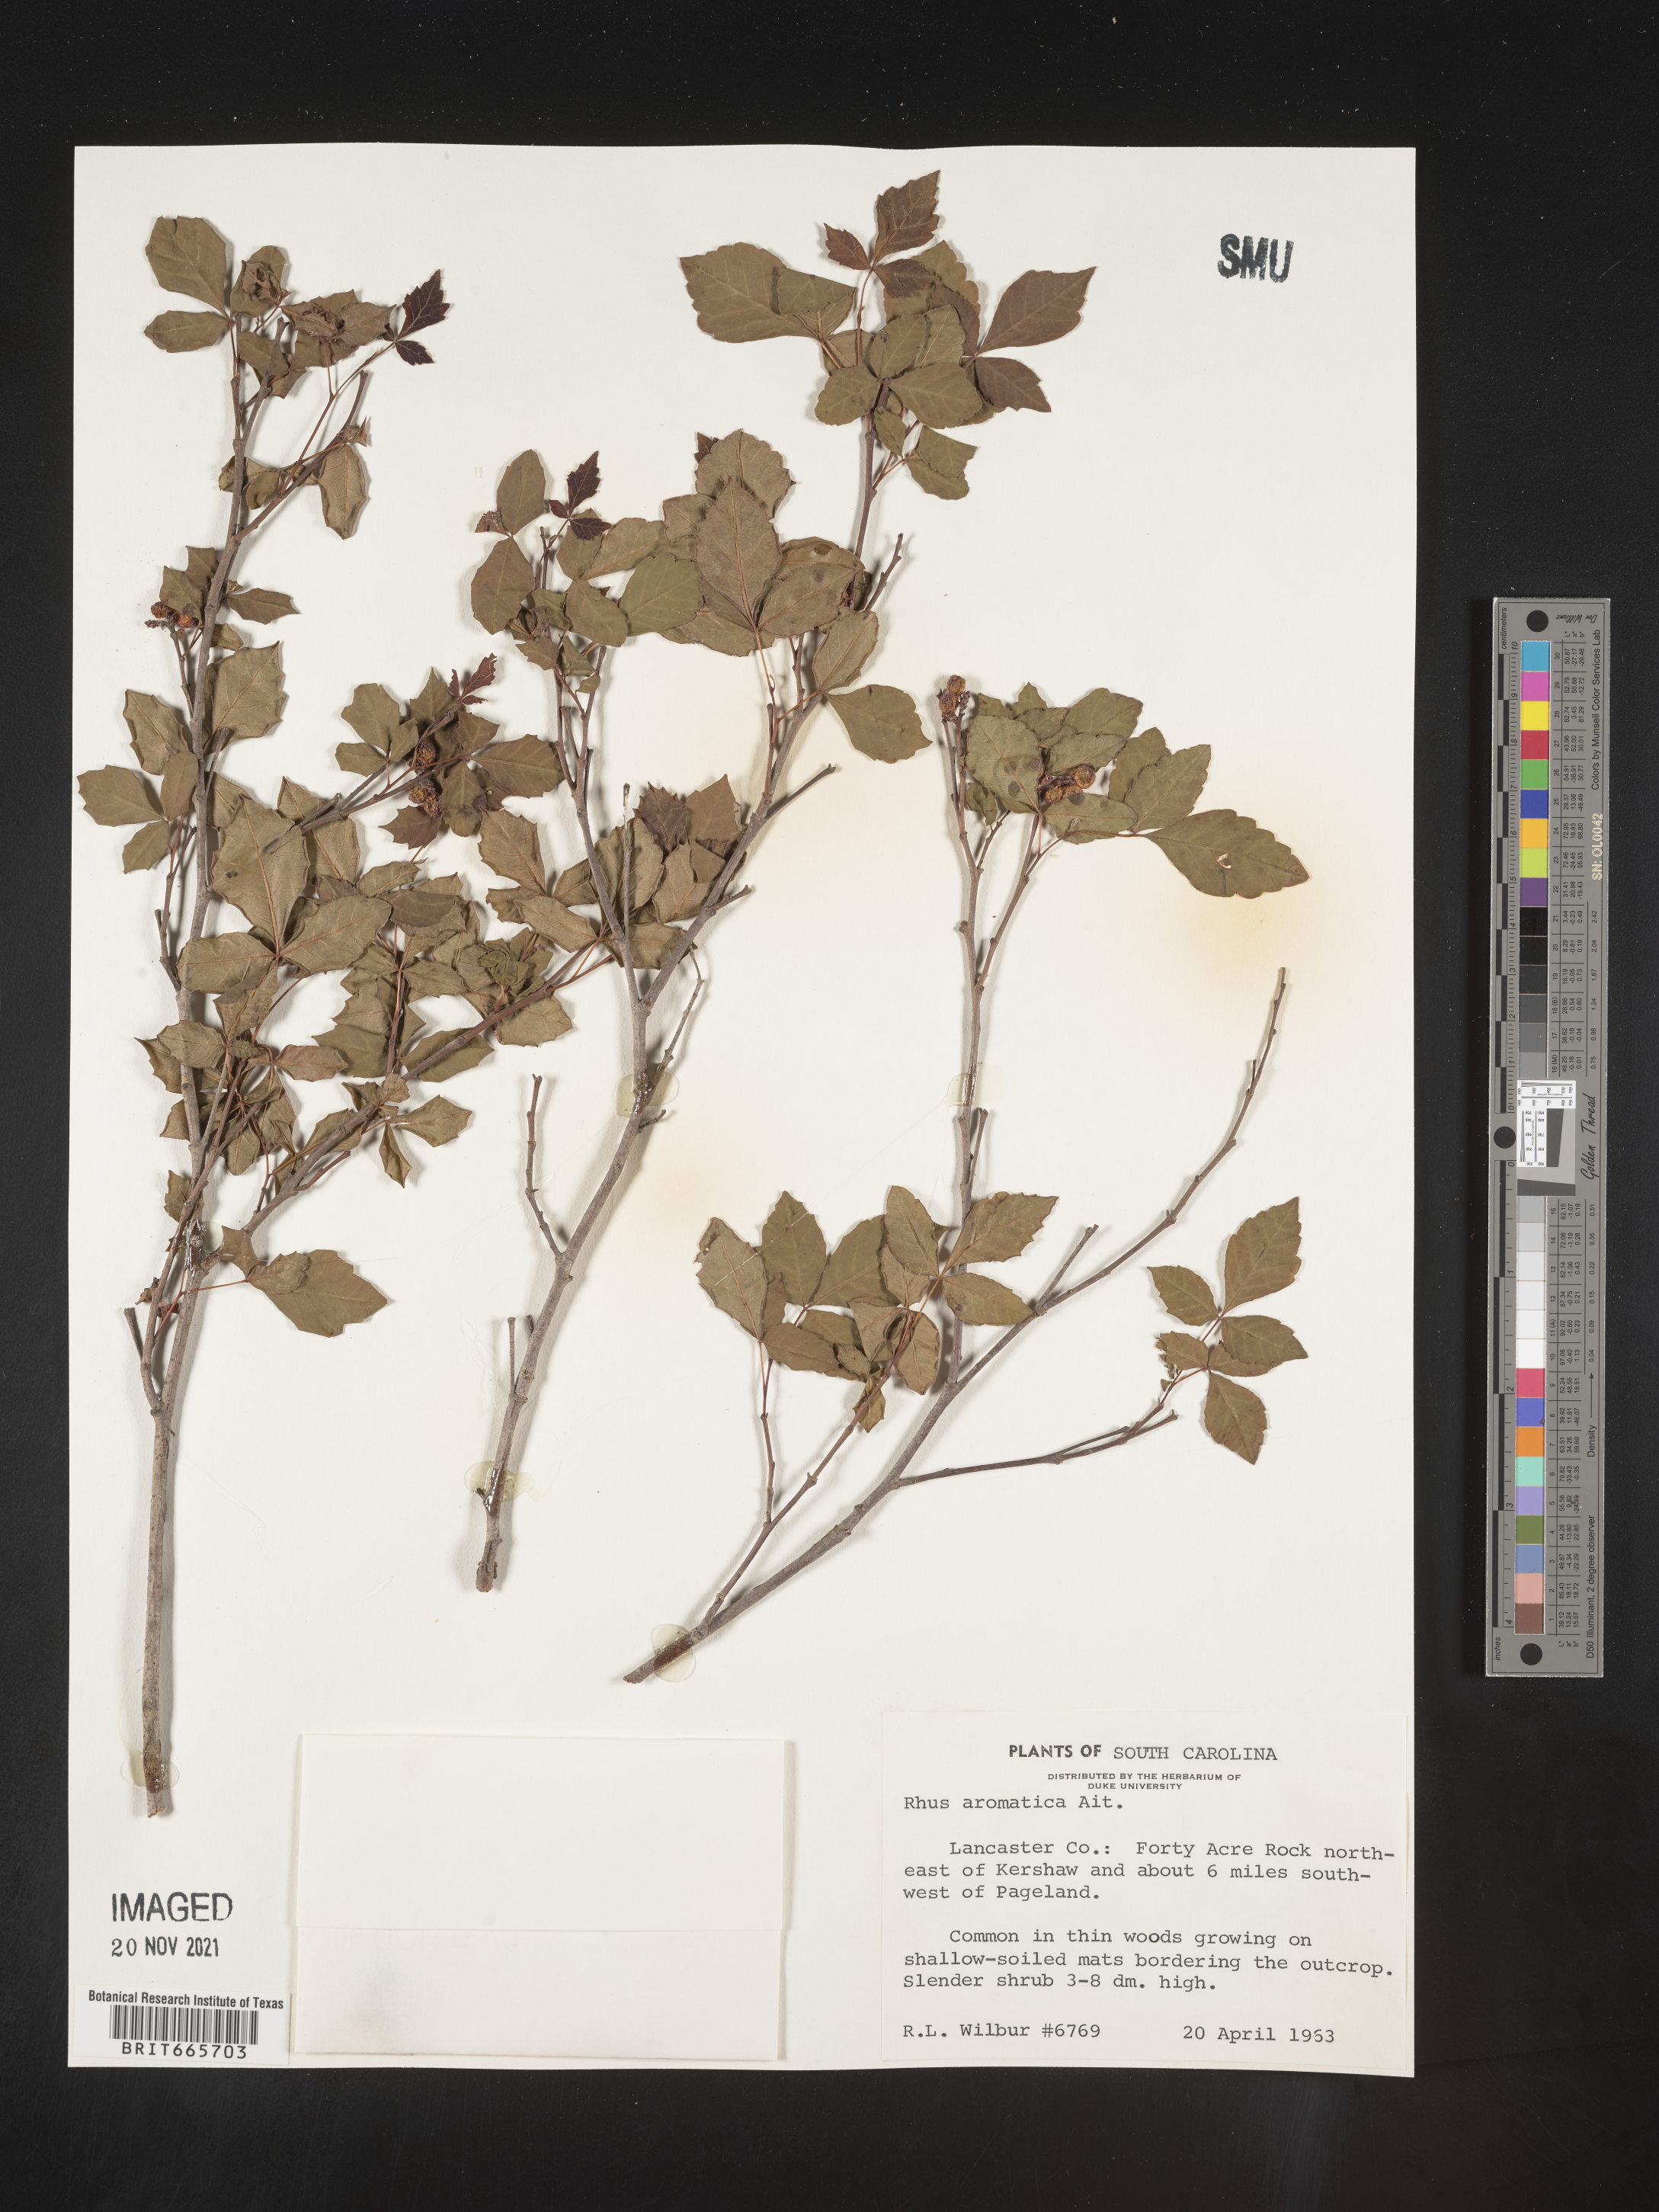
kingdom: Plantae
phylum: Tracheophyta
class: Magnoliopsida
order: Sapindales
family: Anacardiaceae
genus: Rhus
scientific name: Rhus aromatica
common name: Aromatic sumac
